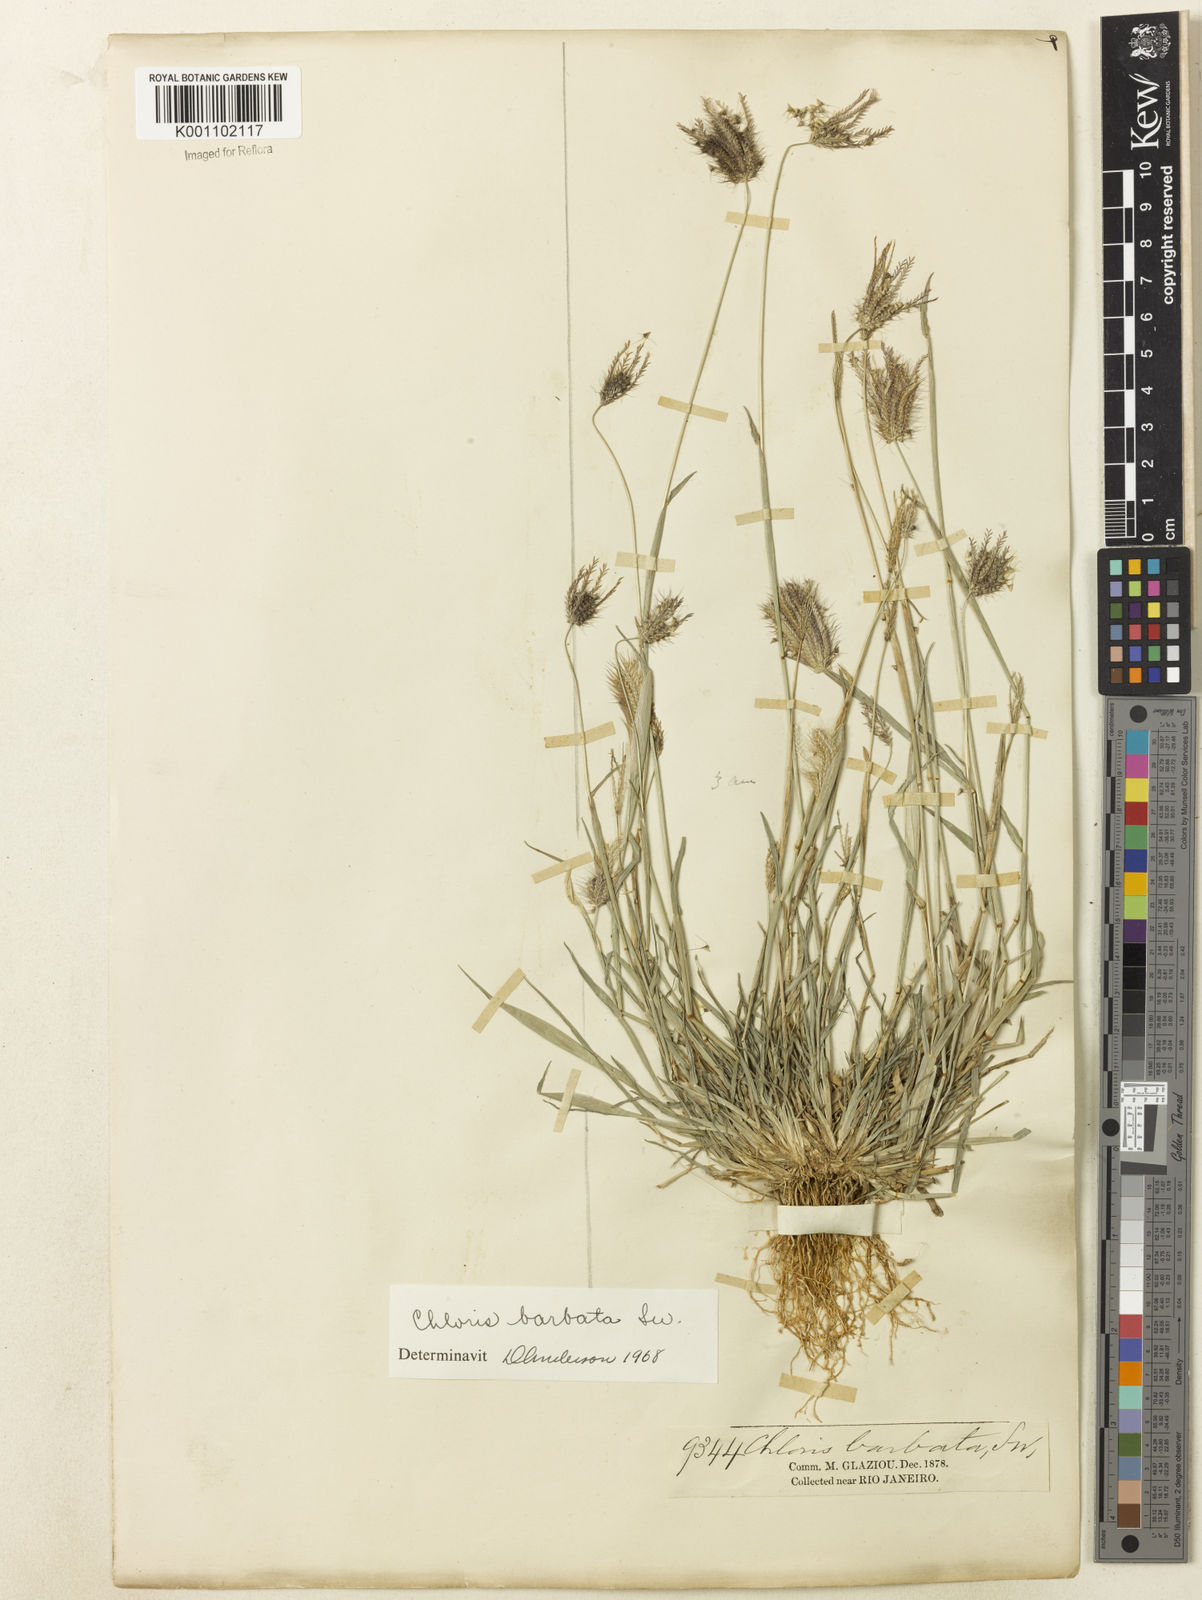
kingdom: Plantae
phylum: Tracheophyta
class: Liliopsida
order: Poales
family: Poaceae
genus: Chloris
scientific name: Chloris barbata
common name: Swollen fingergrass
